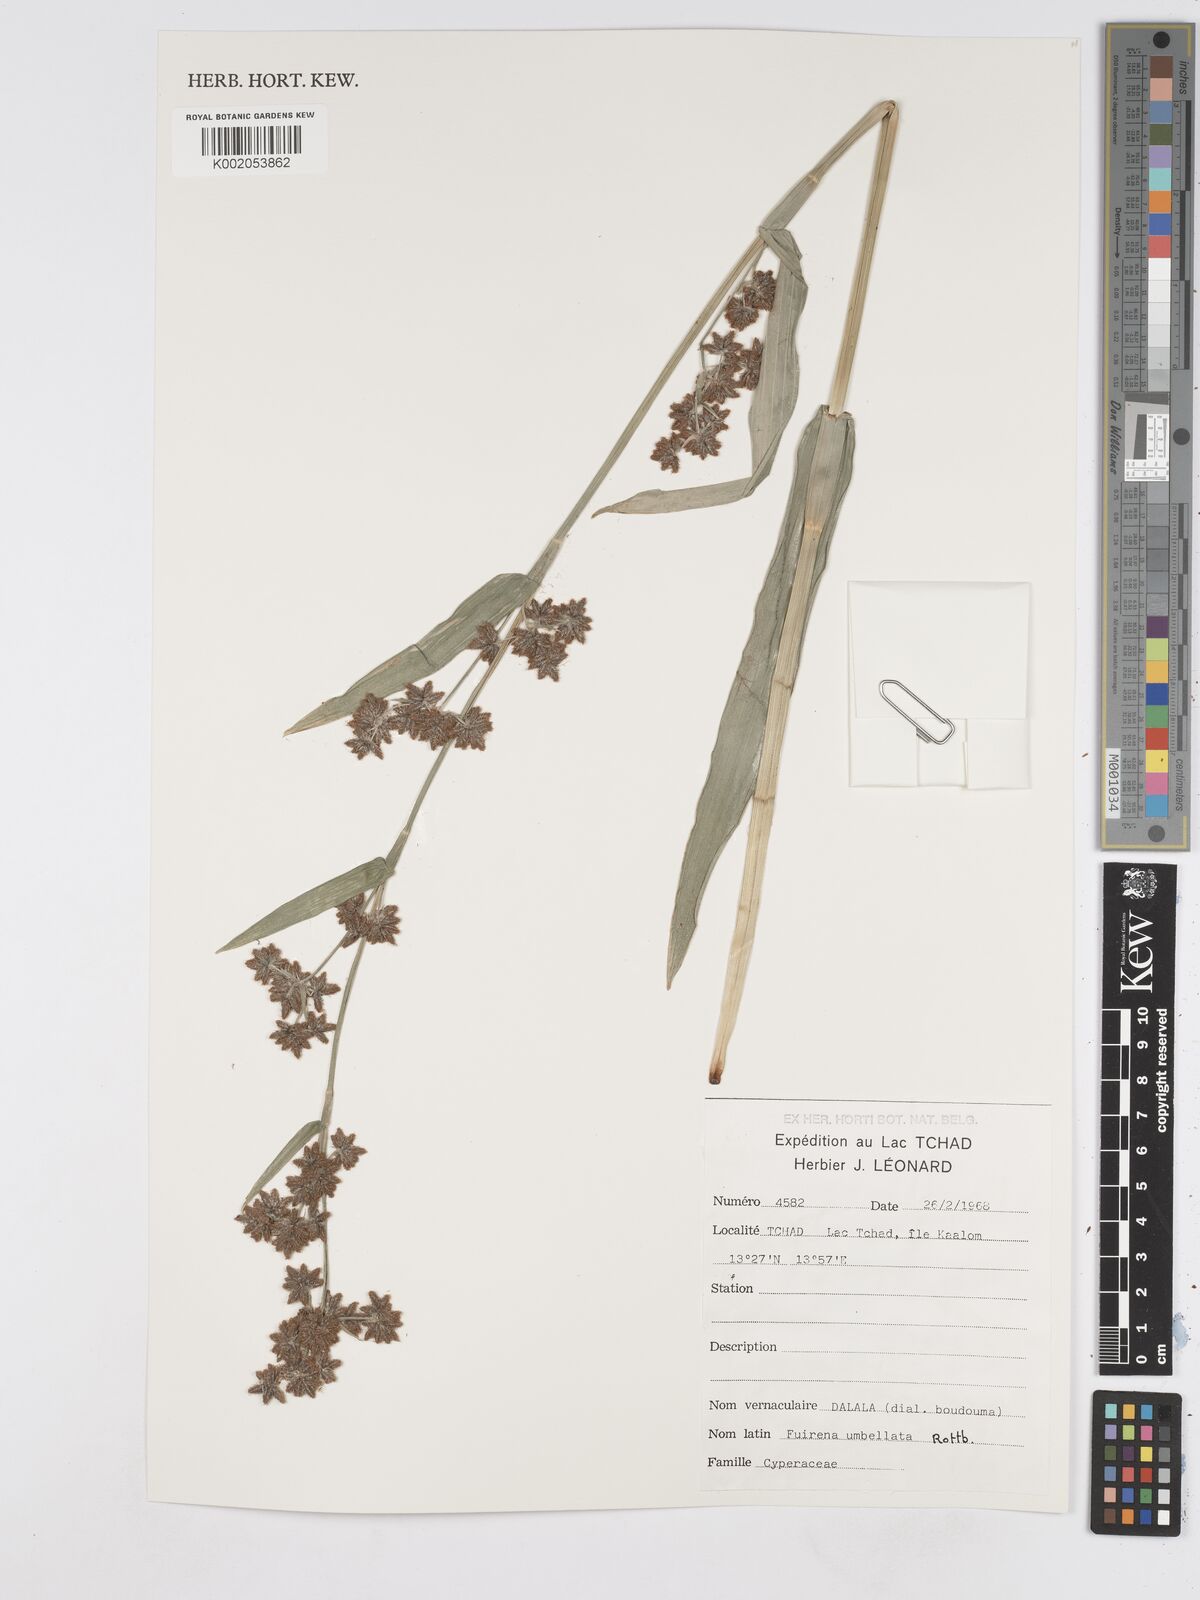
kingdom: Plantae
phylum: Tracheophyta
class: Liliopsida
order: Poales
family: Cyperaceae
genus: Fuirena
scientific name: Fuirena umbellata
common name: Yefen
